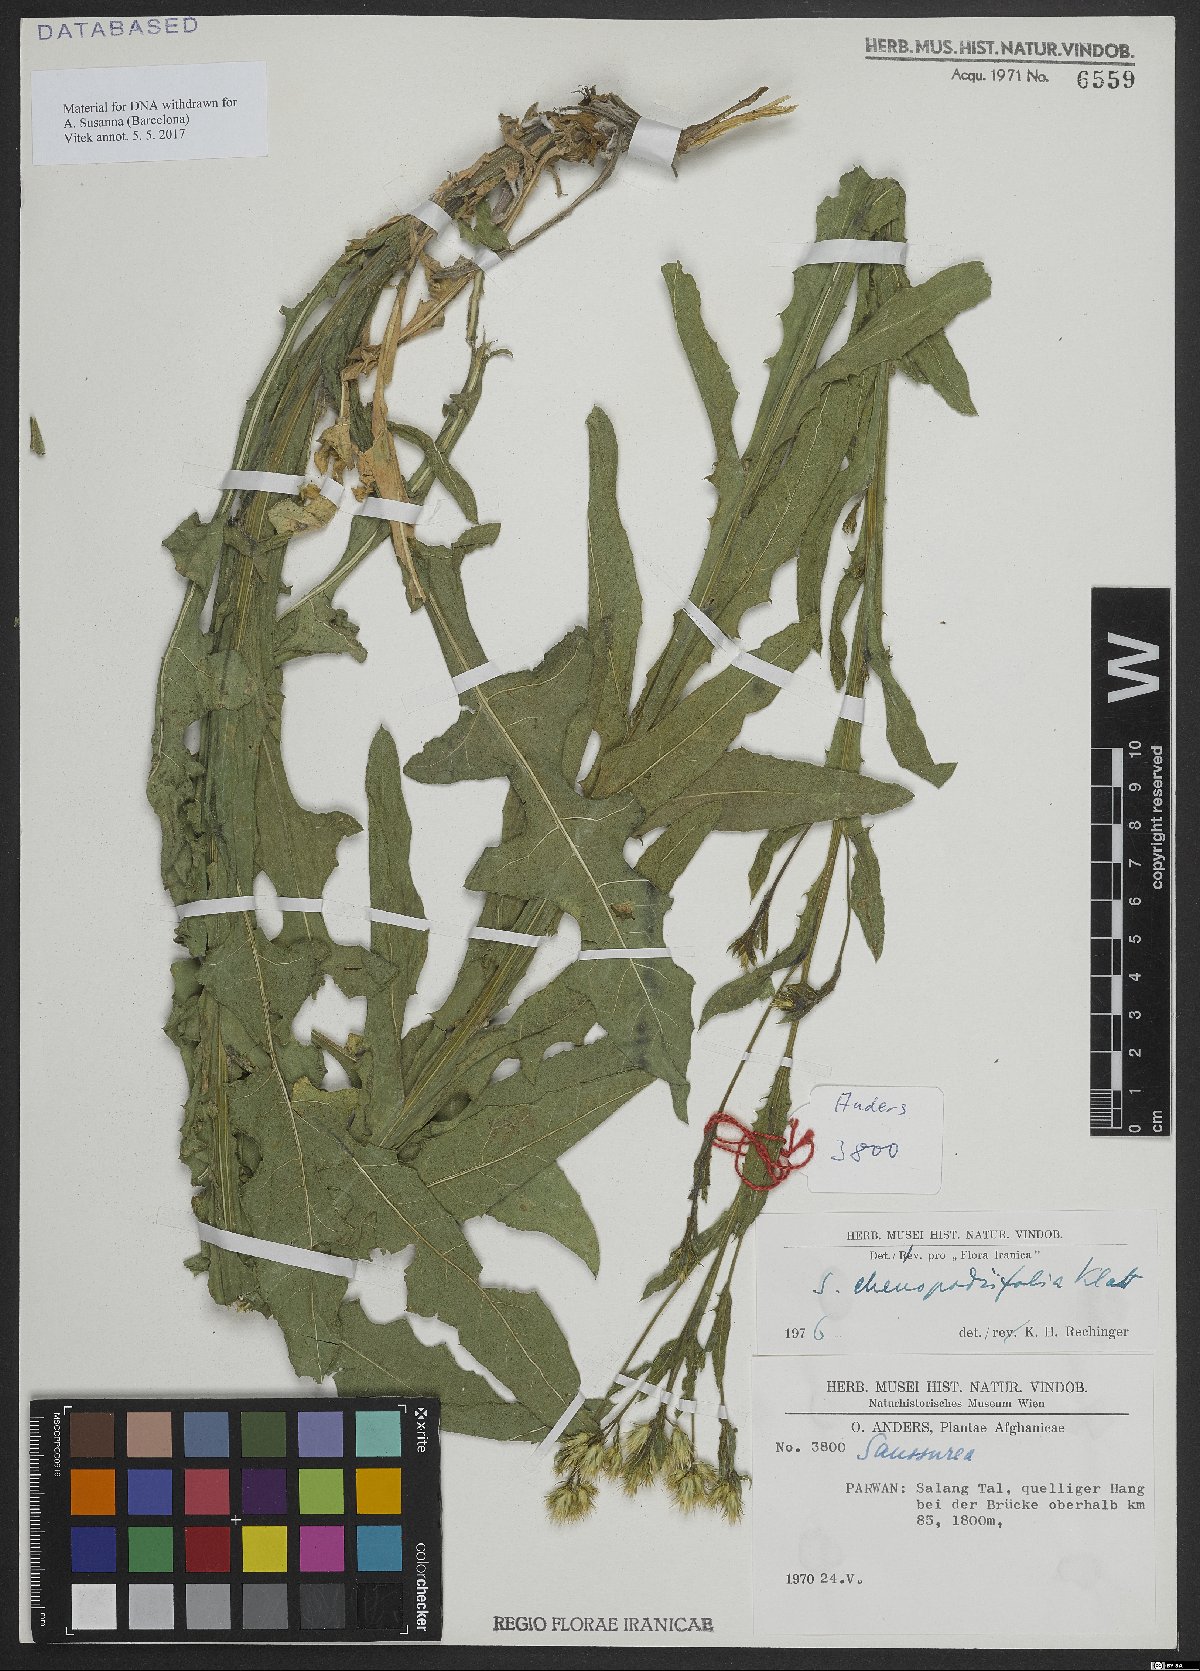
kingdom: Plantae
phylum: Tracheophyta
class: Magnoliopsida
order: Asterales
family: Asteraceae
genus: Jurinea
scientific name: Jurinea chenopodiifolia
